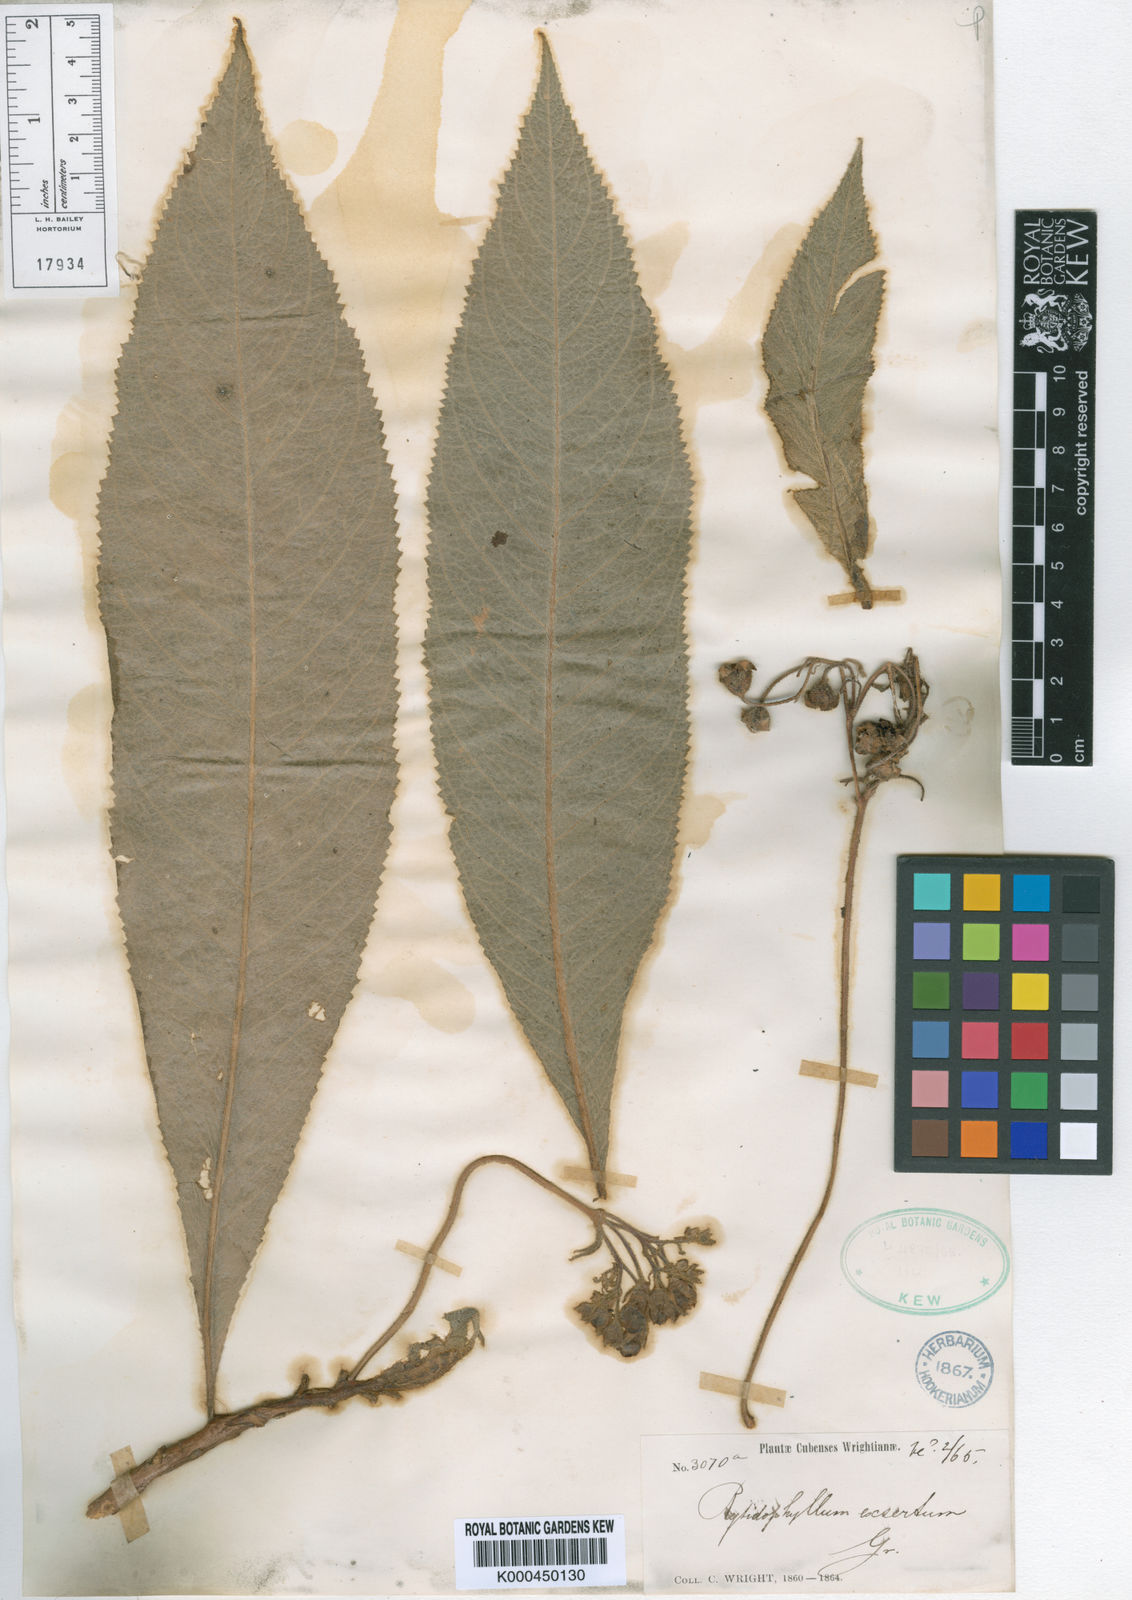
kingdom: Plantae
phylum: Tracheophyta
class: Magnoliopsida
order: Lamiales
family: Gesneriaceae
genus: Rhytidophyllum
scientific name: Rhytidophyllum exsertum
